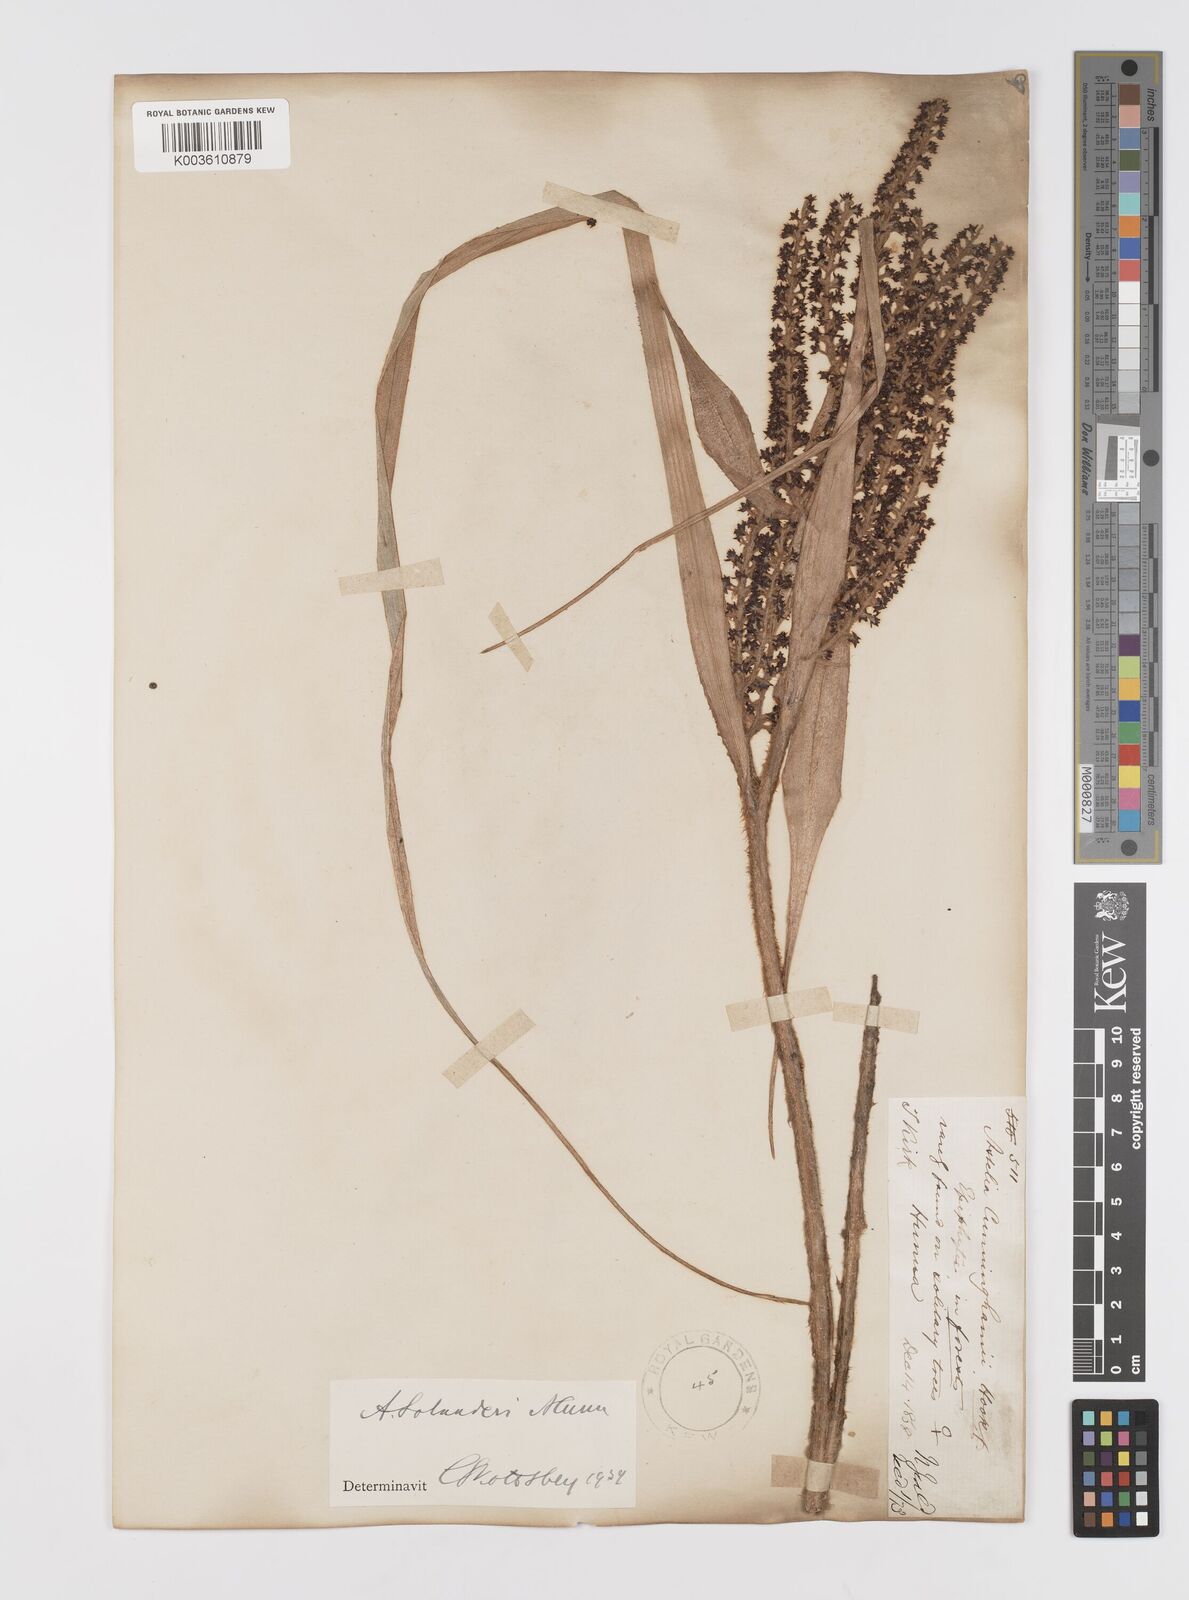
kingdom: Plantae
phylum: Tracheophyta
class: Liliopsida
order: Asparagales
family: Asteliaceae
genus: Astelia
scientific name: Astelia solandri
